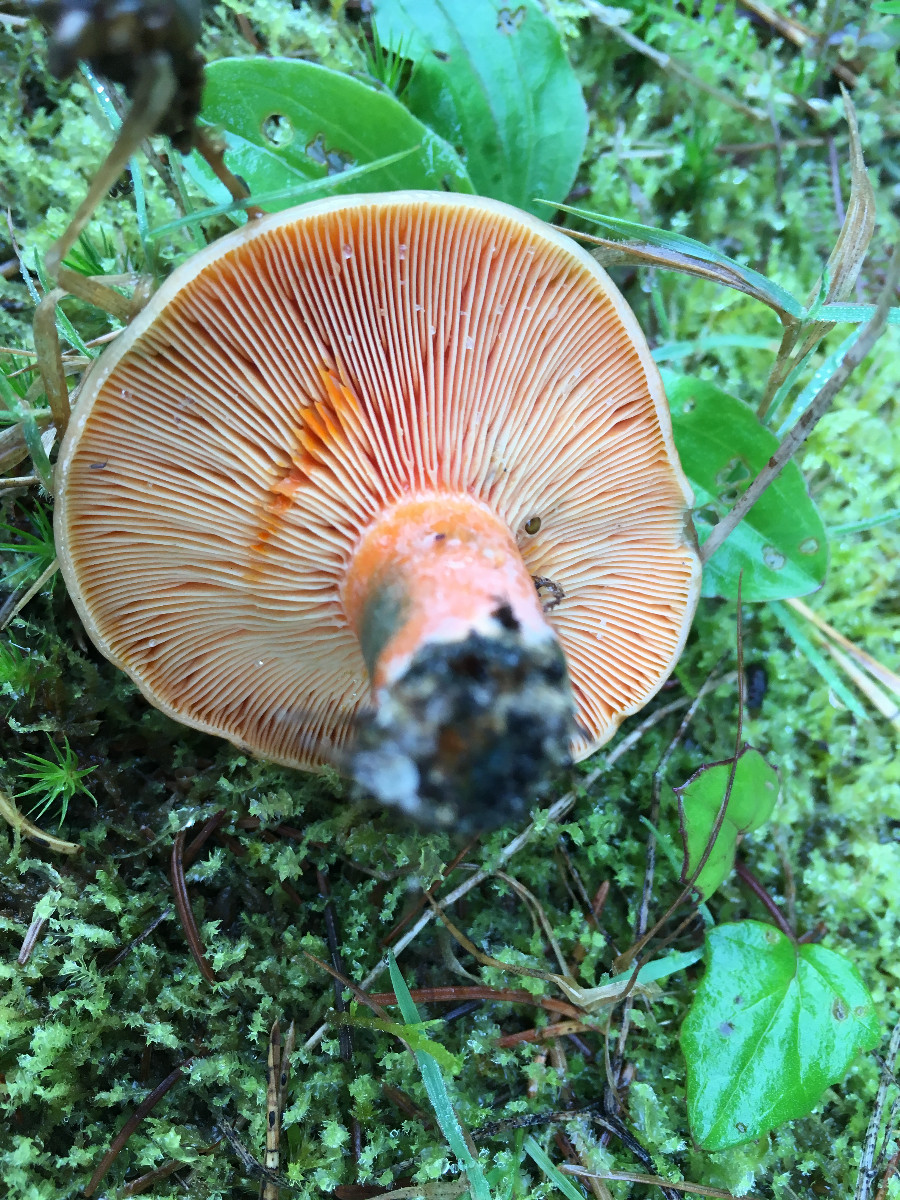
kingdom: Fungi
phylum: Basidiomycota
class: Agaricomycetes
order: Russulales
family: Russulaceae
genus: Lactarius
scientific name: Lactarius deterrimus
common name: gran-mælkehat
